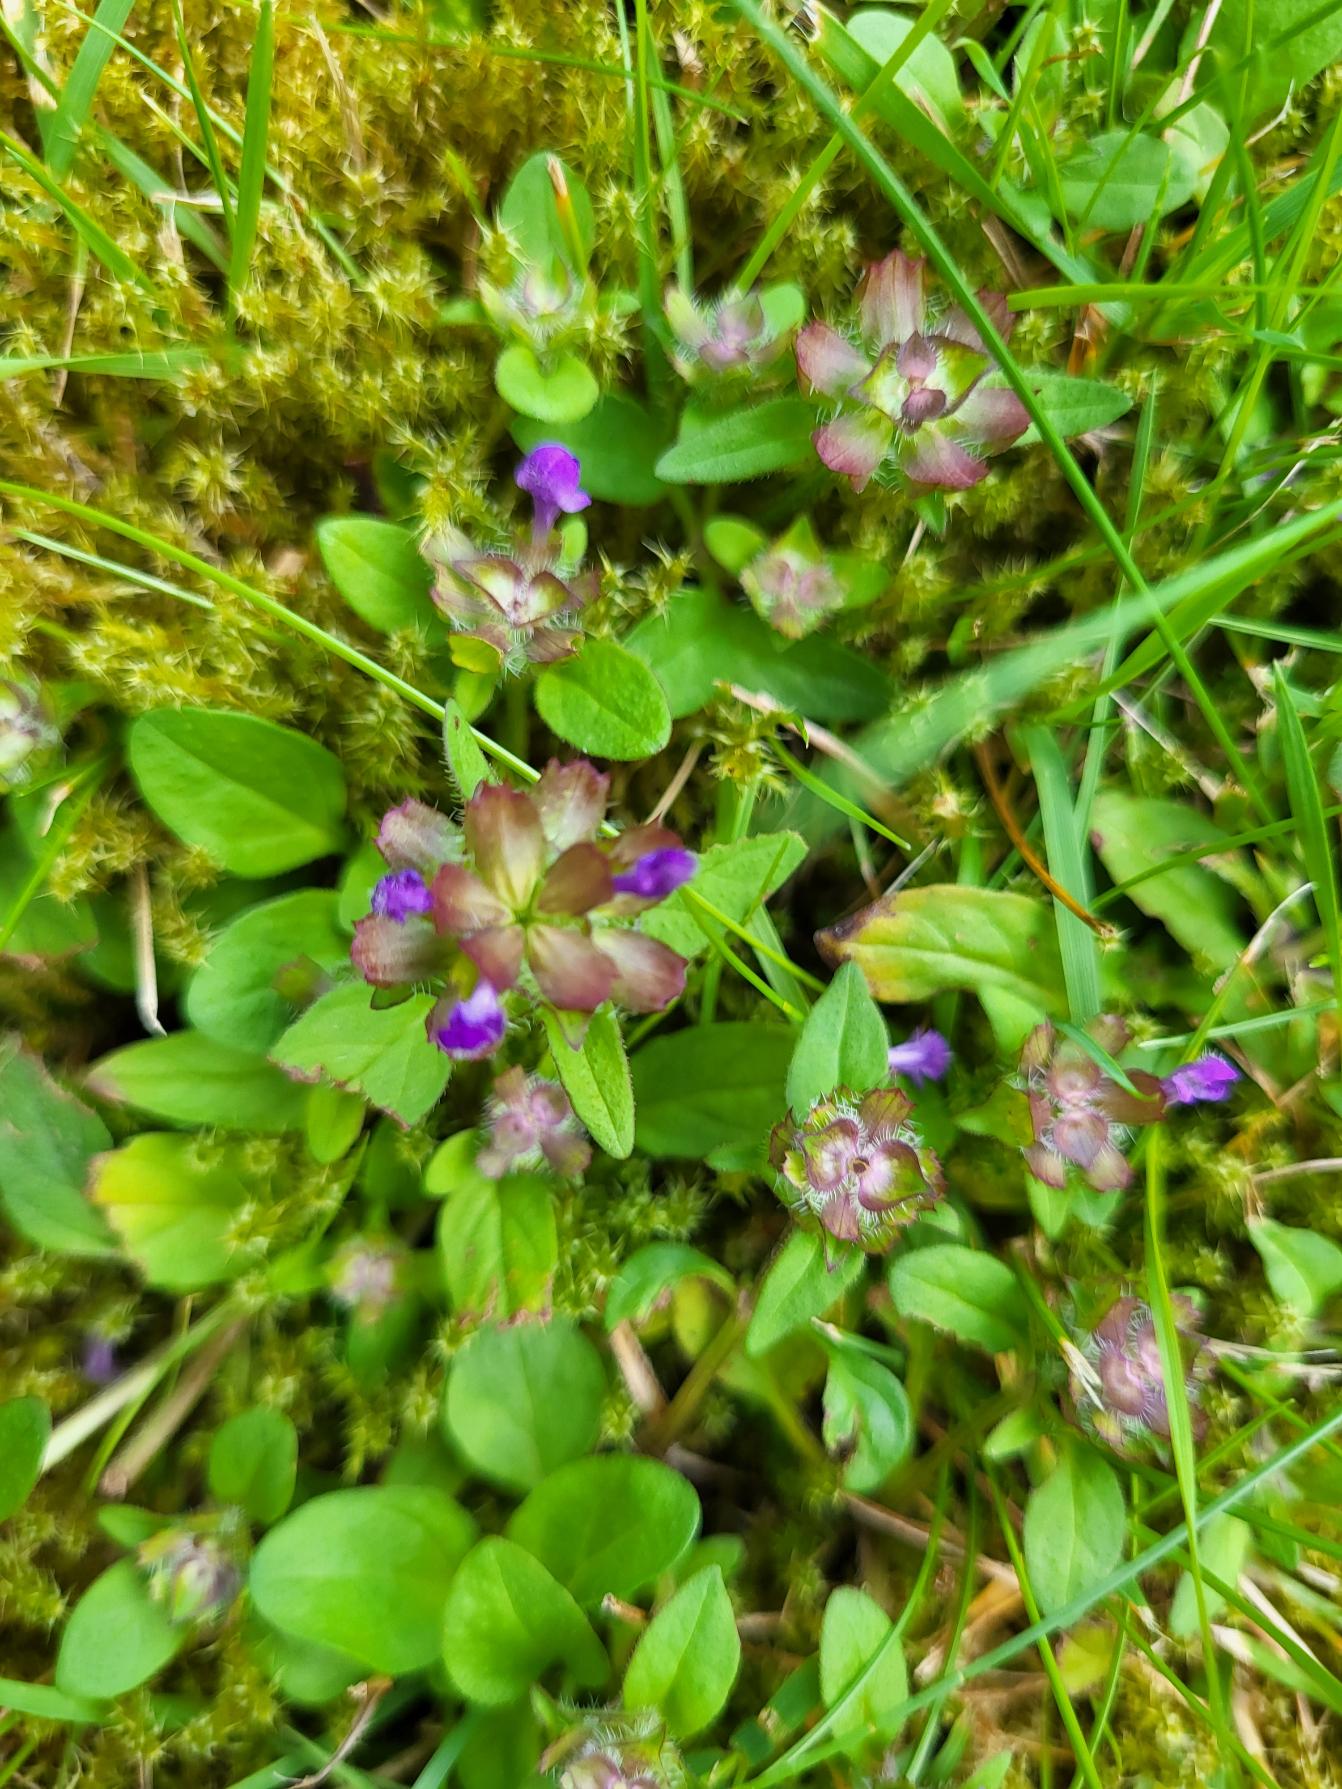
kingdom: Plantae
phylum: Tracheophyta
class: Magnoliopsida
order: Lamiales
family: Lamiaceae
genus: Prunella
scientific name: Prunella vulgaris
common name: Almindelig brunelle
